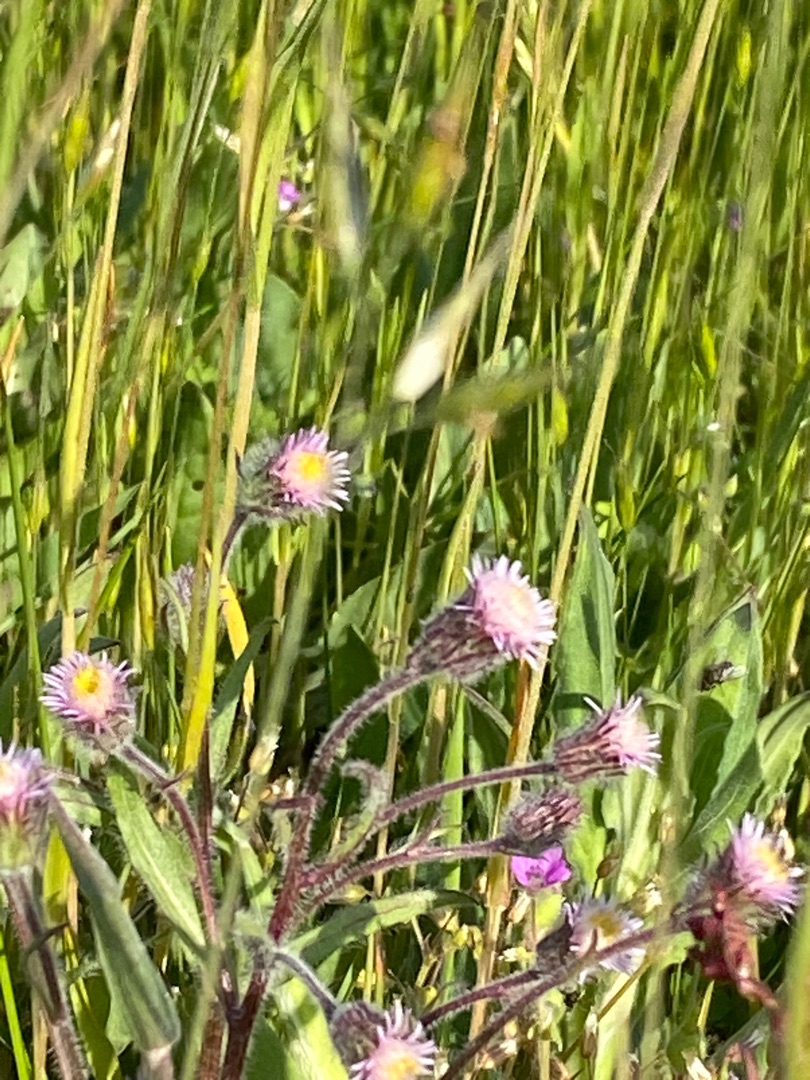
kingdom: Plantae
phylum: Tracheophyta
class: Magnoliopsida
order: Asterales
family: Asteraceae
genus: Erigeron
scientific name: Erigeron acris
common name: Bitter bakkestjerne
